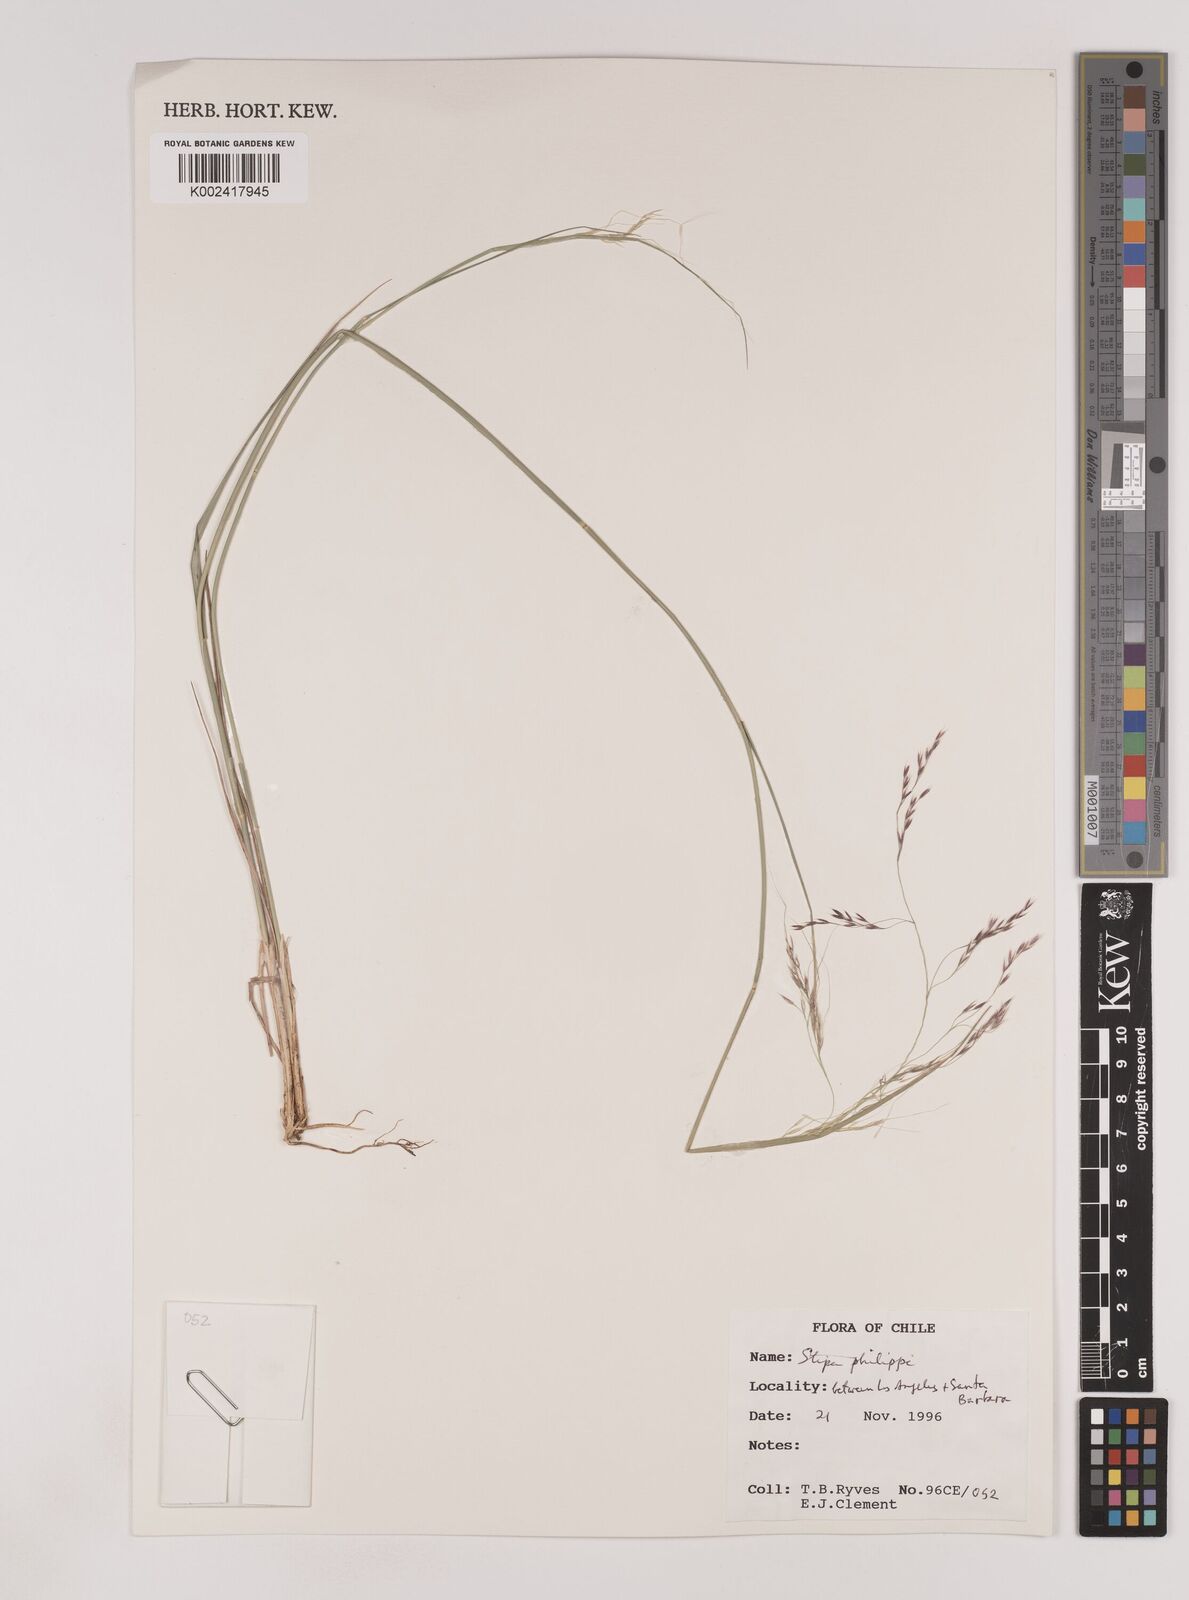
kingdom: Plantae
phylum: Tracheophyta
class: Liliopsida
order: Poales
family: Poaceae
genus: Nassella
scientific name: Nassella philippii
